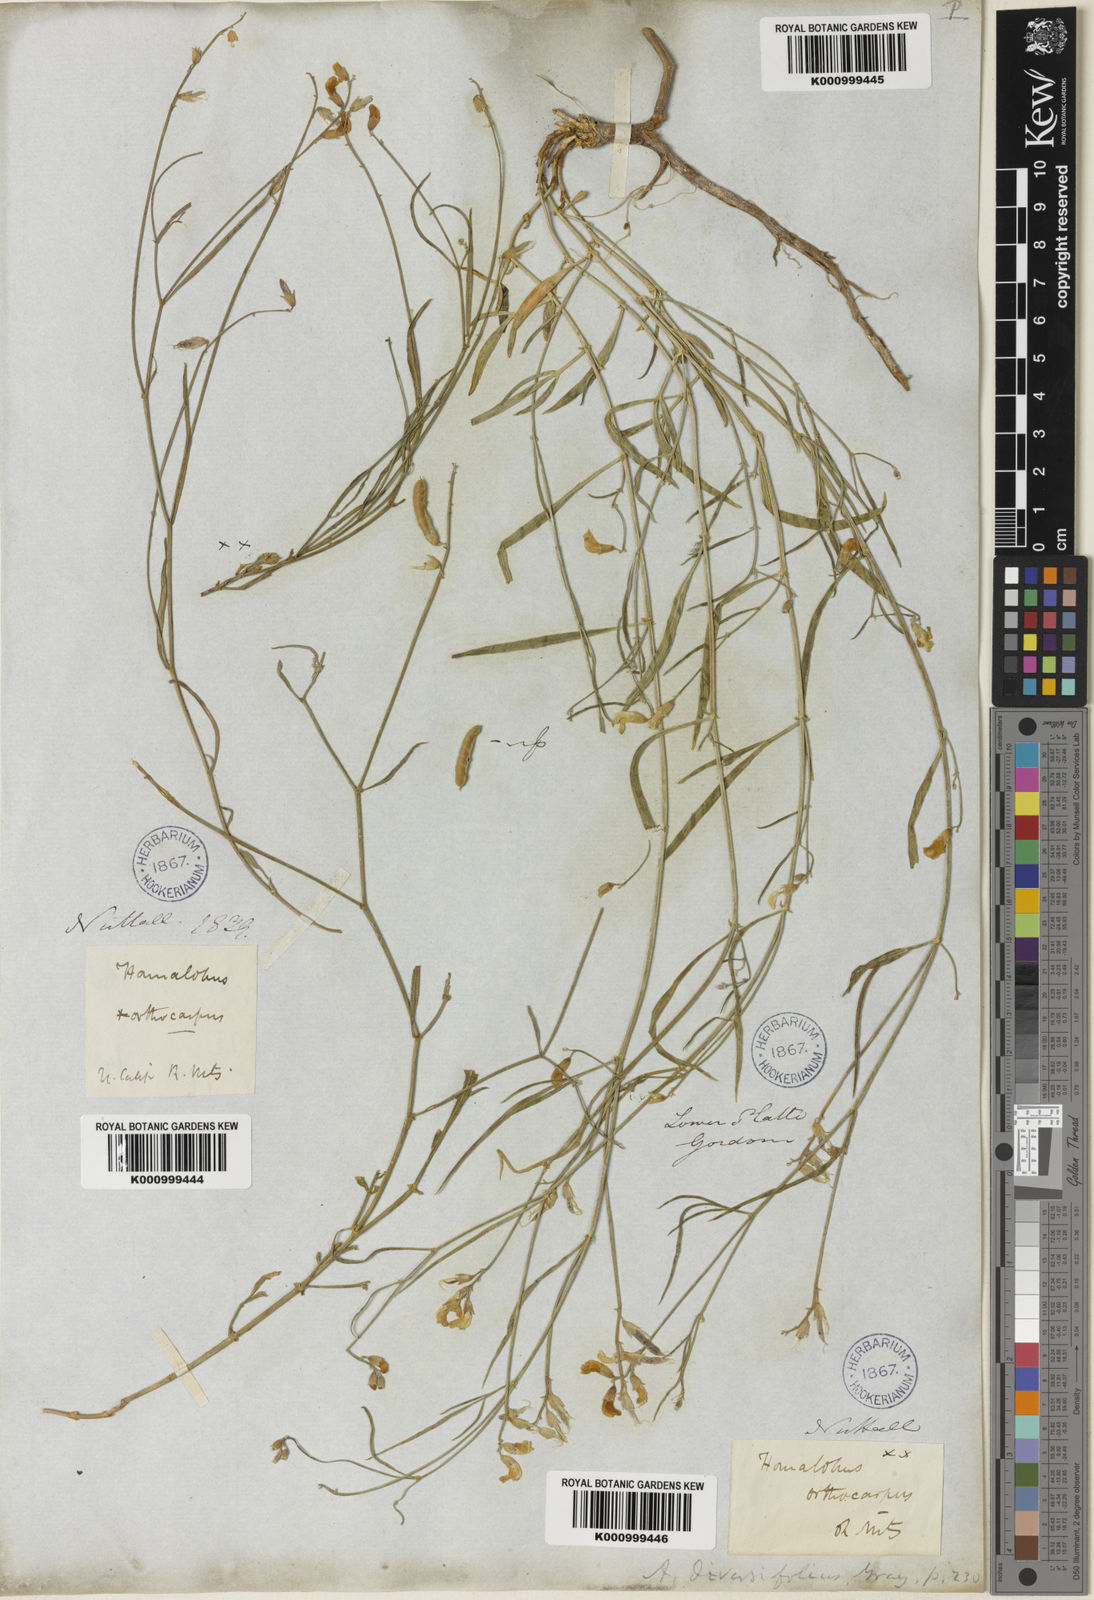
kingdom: Plantae
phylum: Tracheophyta
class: Magnoliopsida
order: Fabales
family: Fabaceae
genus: Astragalus
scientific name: Astragalus diversifolius
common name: Meadow milk-vetch
